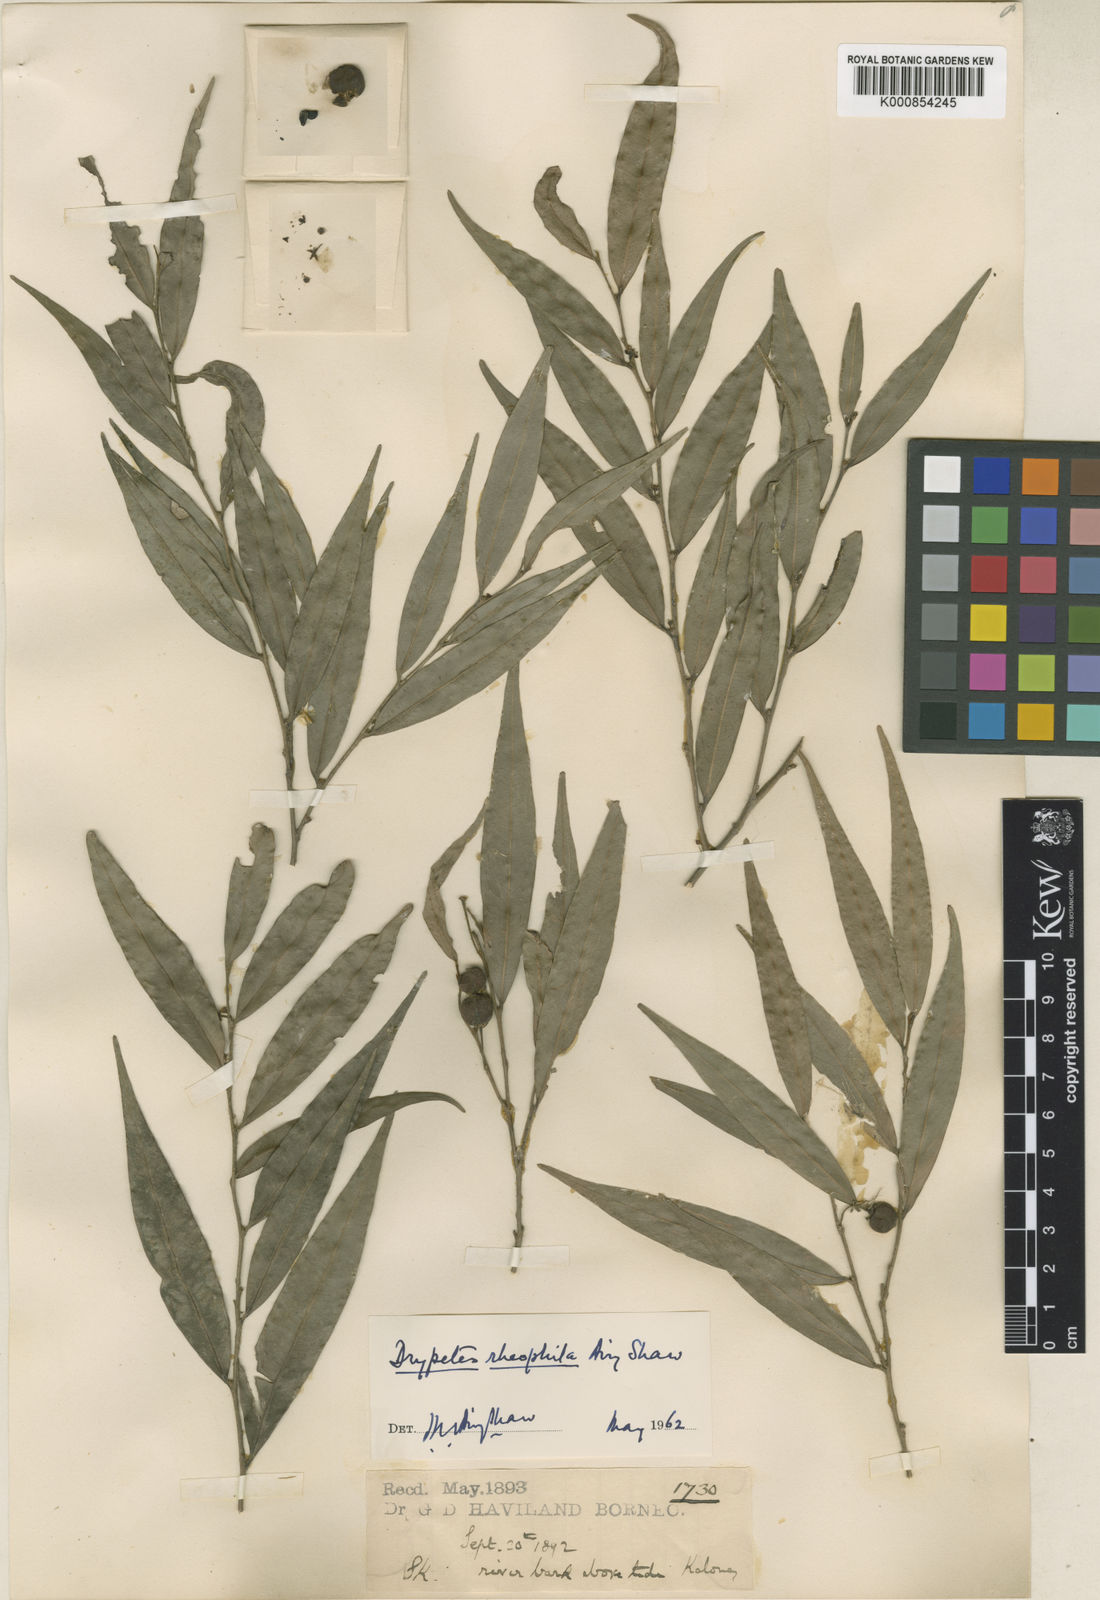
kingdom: Plantae
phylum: Tracheophyta
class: Magnoliopsida
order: Malpighiales
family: Putranjivaceae
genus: Drypetes
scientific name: Drypetes rhakodiskos
